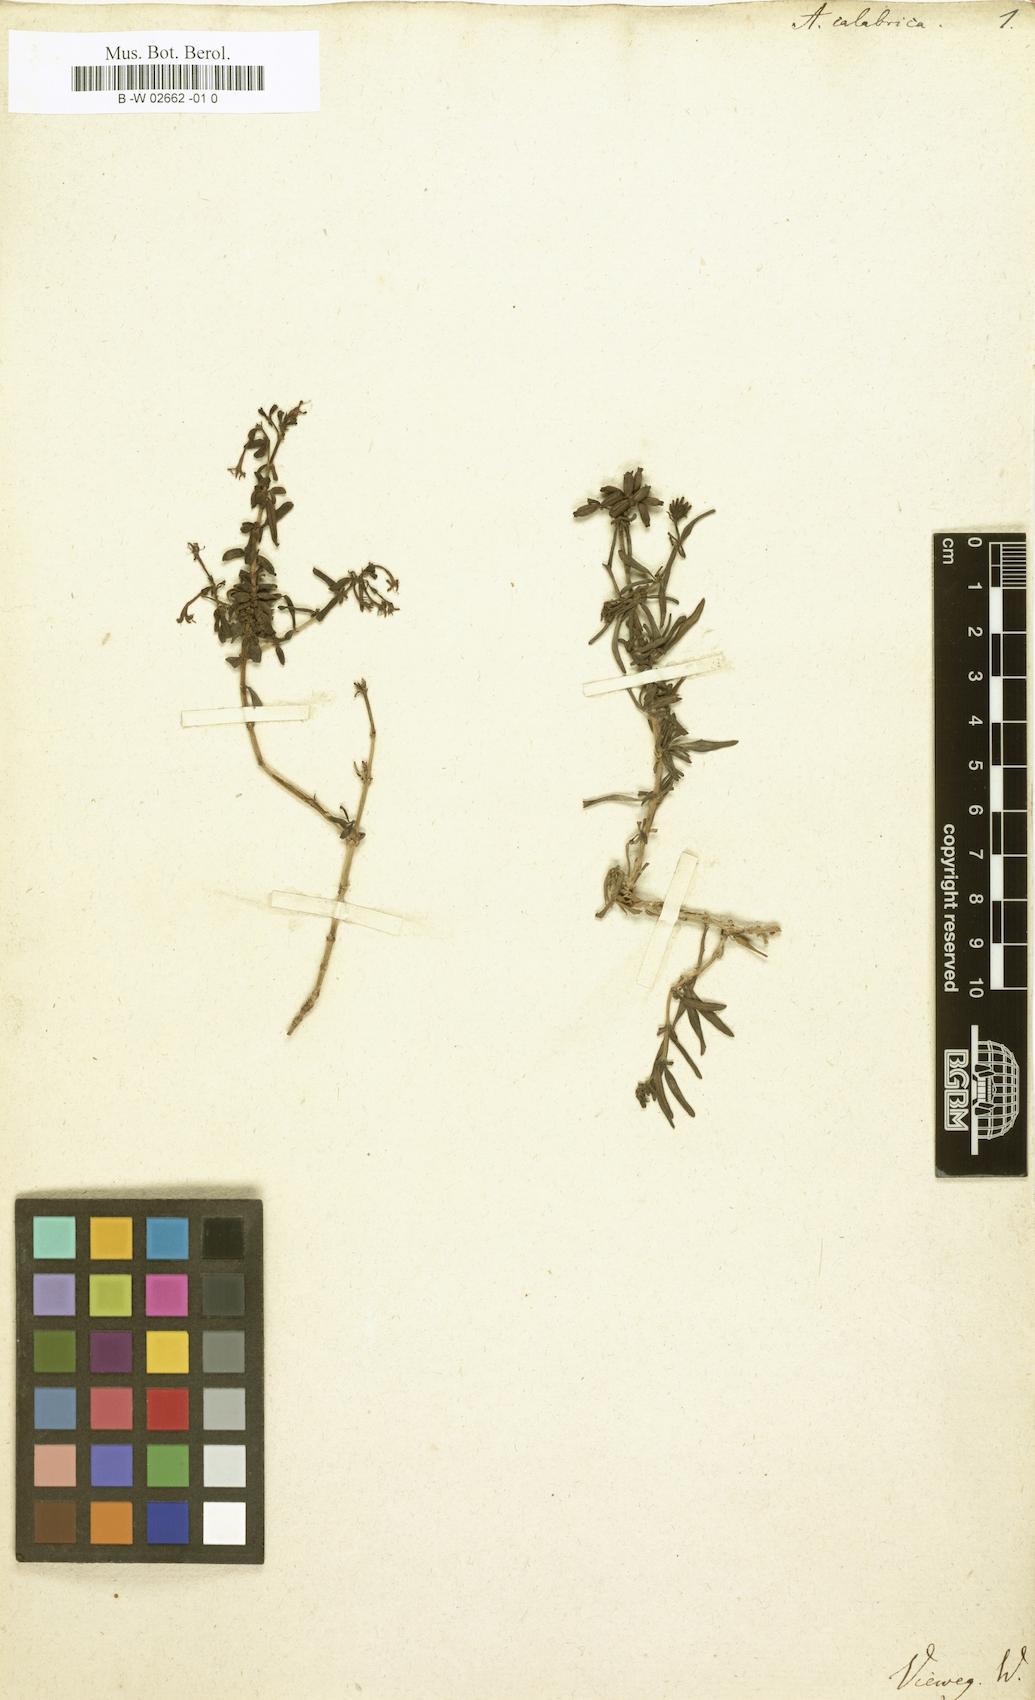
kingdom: Plantae
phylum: Tracheophyta
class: Magnoliopsida
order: Gentianales
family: Rubiaceae
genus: Plocama
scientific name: Plocama calabrica
